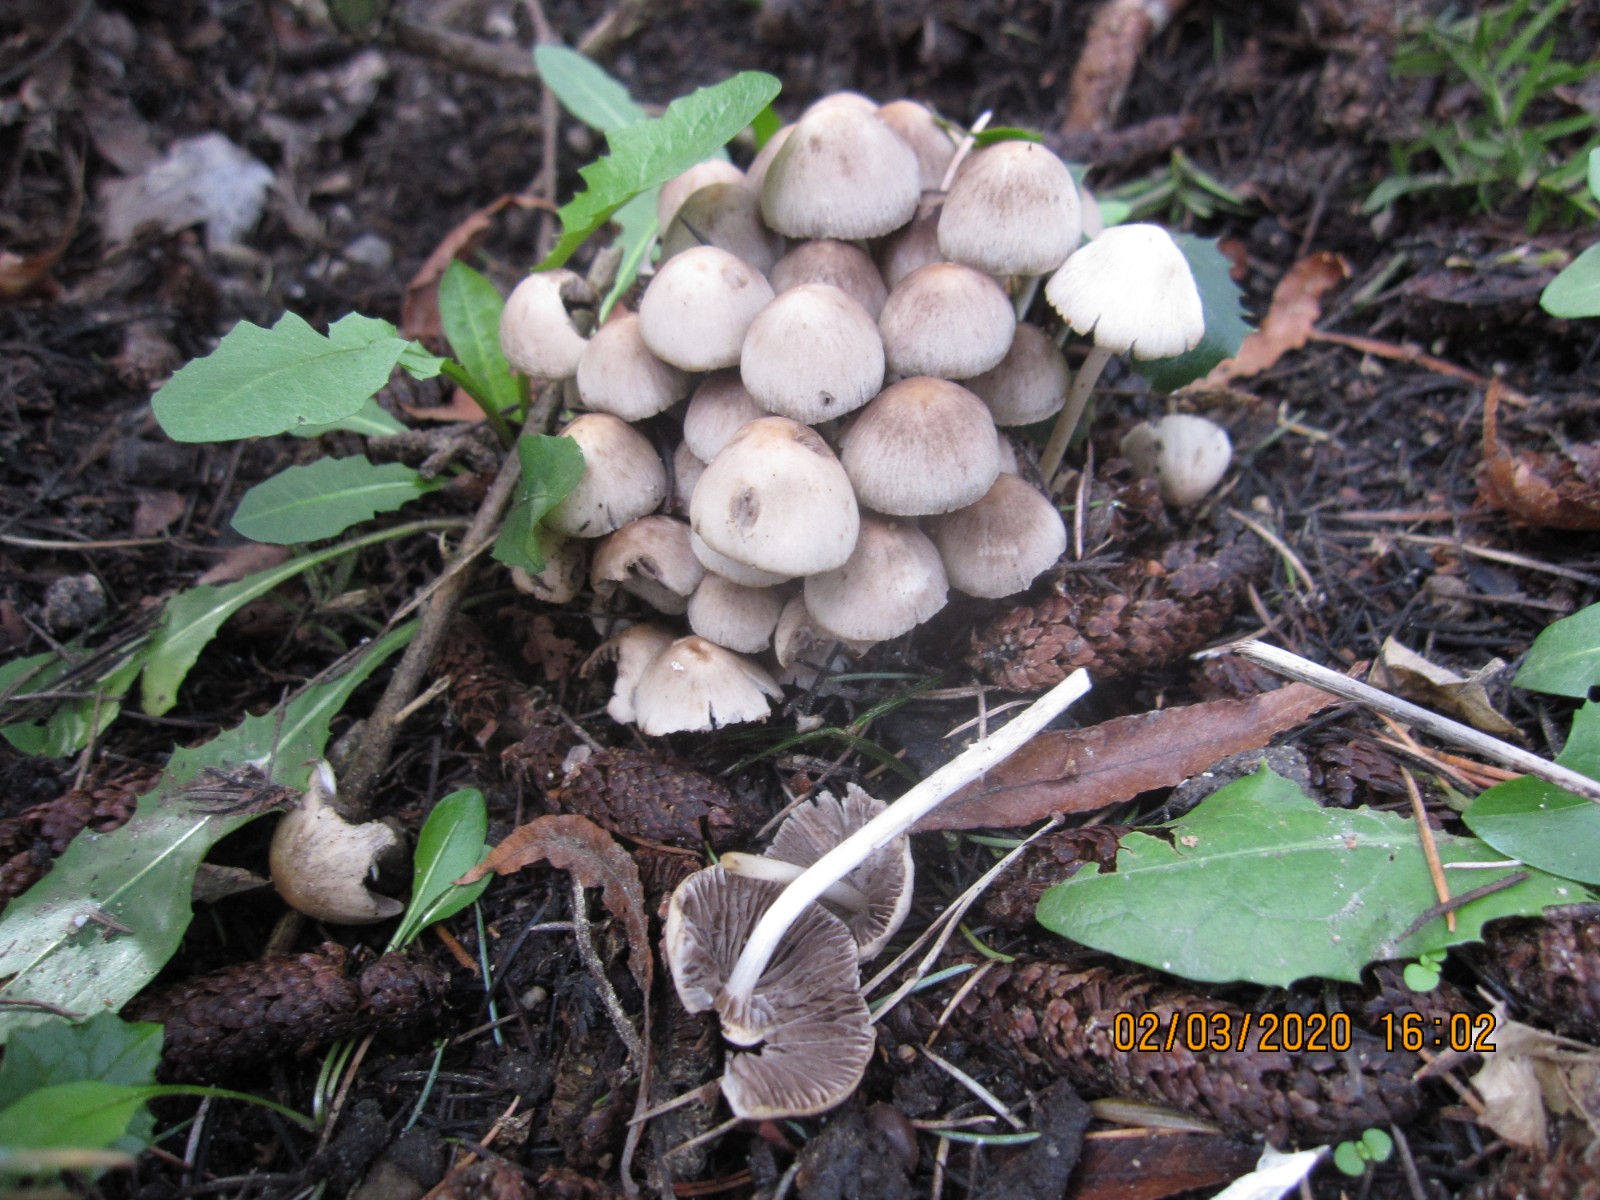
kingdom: Fungi
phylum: Basidiomycota
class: Agaricomycetes
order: Agaricales
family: Psathyrellaceae
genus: Britzelmayria
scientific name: Britzelmayria multipedata
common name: knippe-mørkhat
